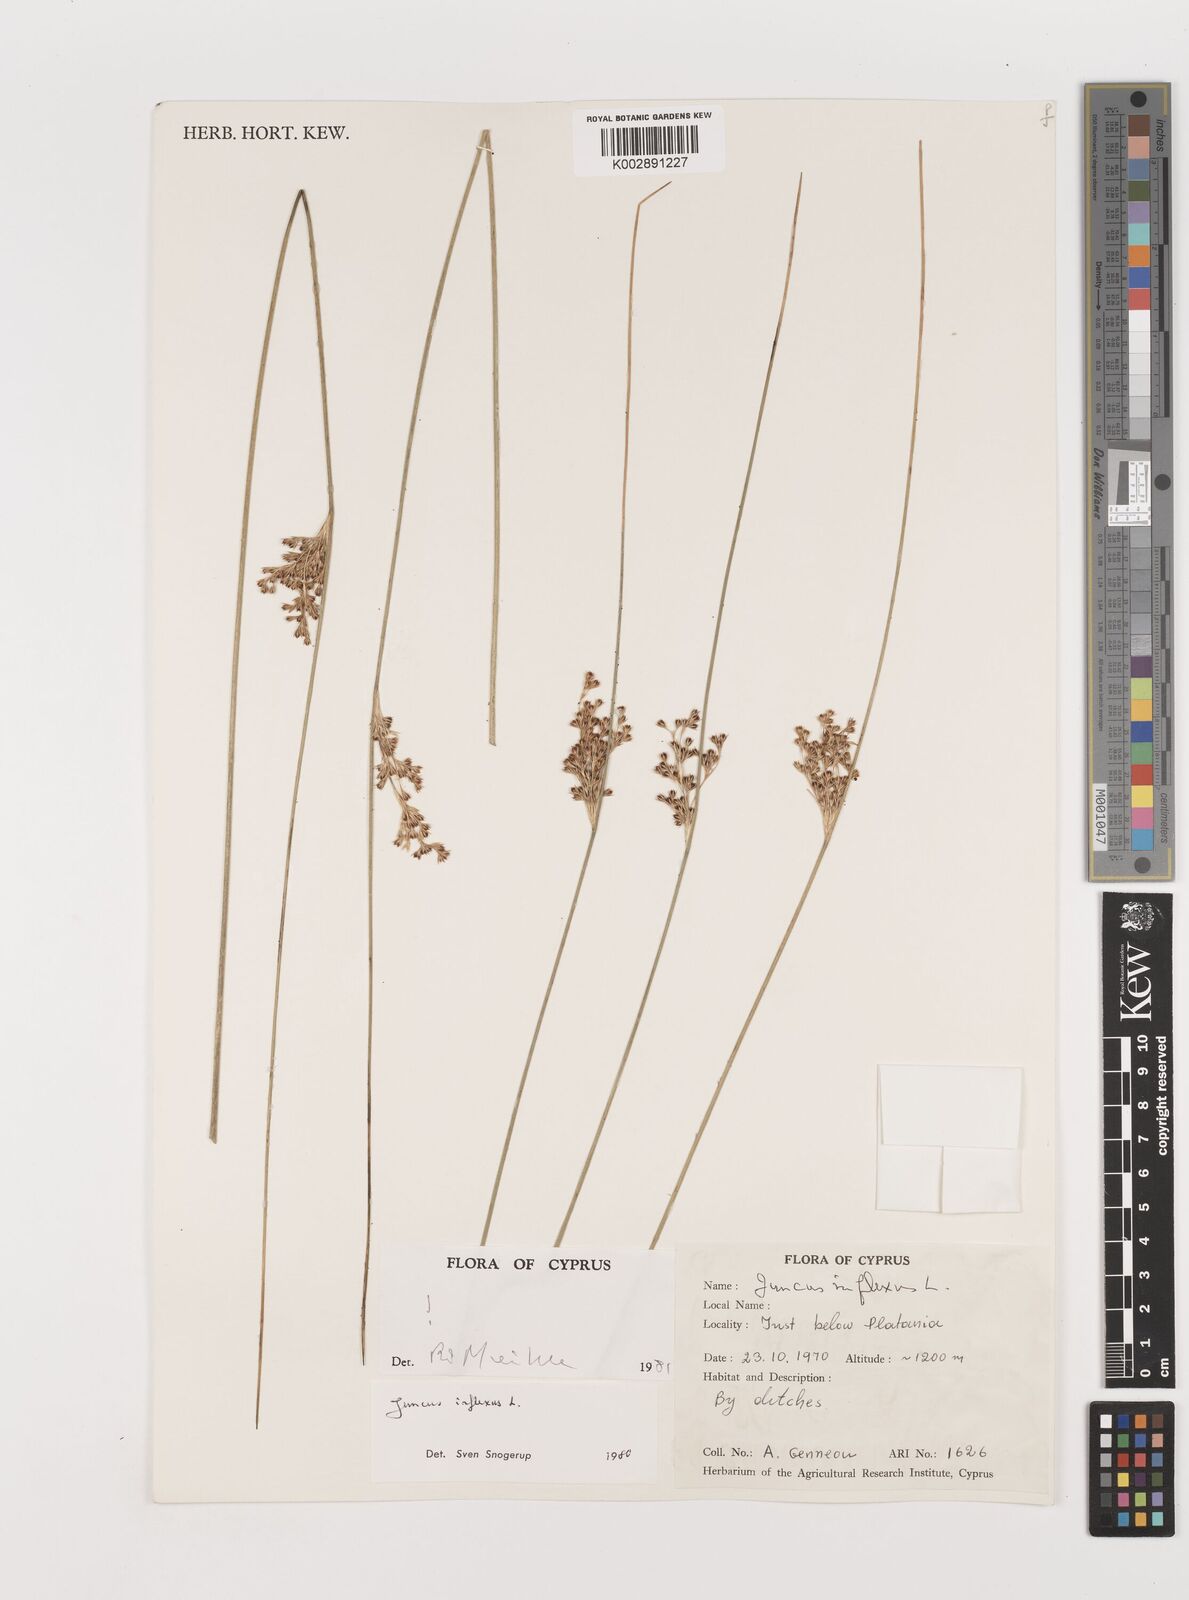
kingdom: Plantae
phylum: Tracheophyta
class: Liliopsida
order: Poales
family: Juncaceae
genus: Juncus
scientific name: Juncus inflexus
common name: Hard rush
